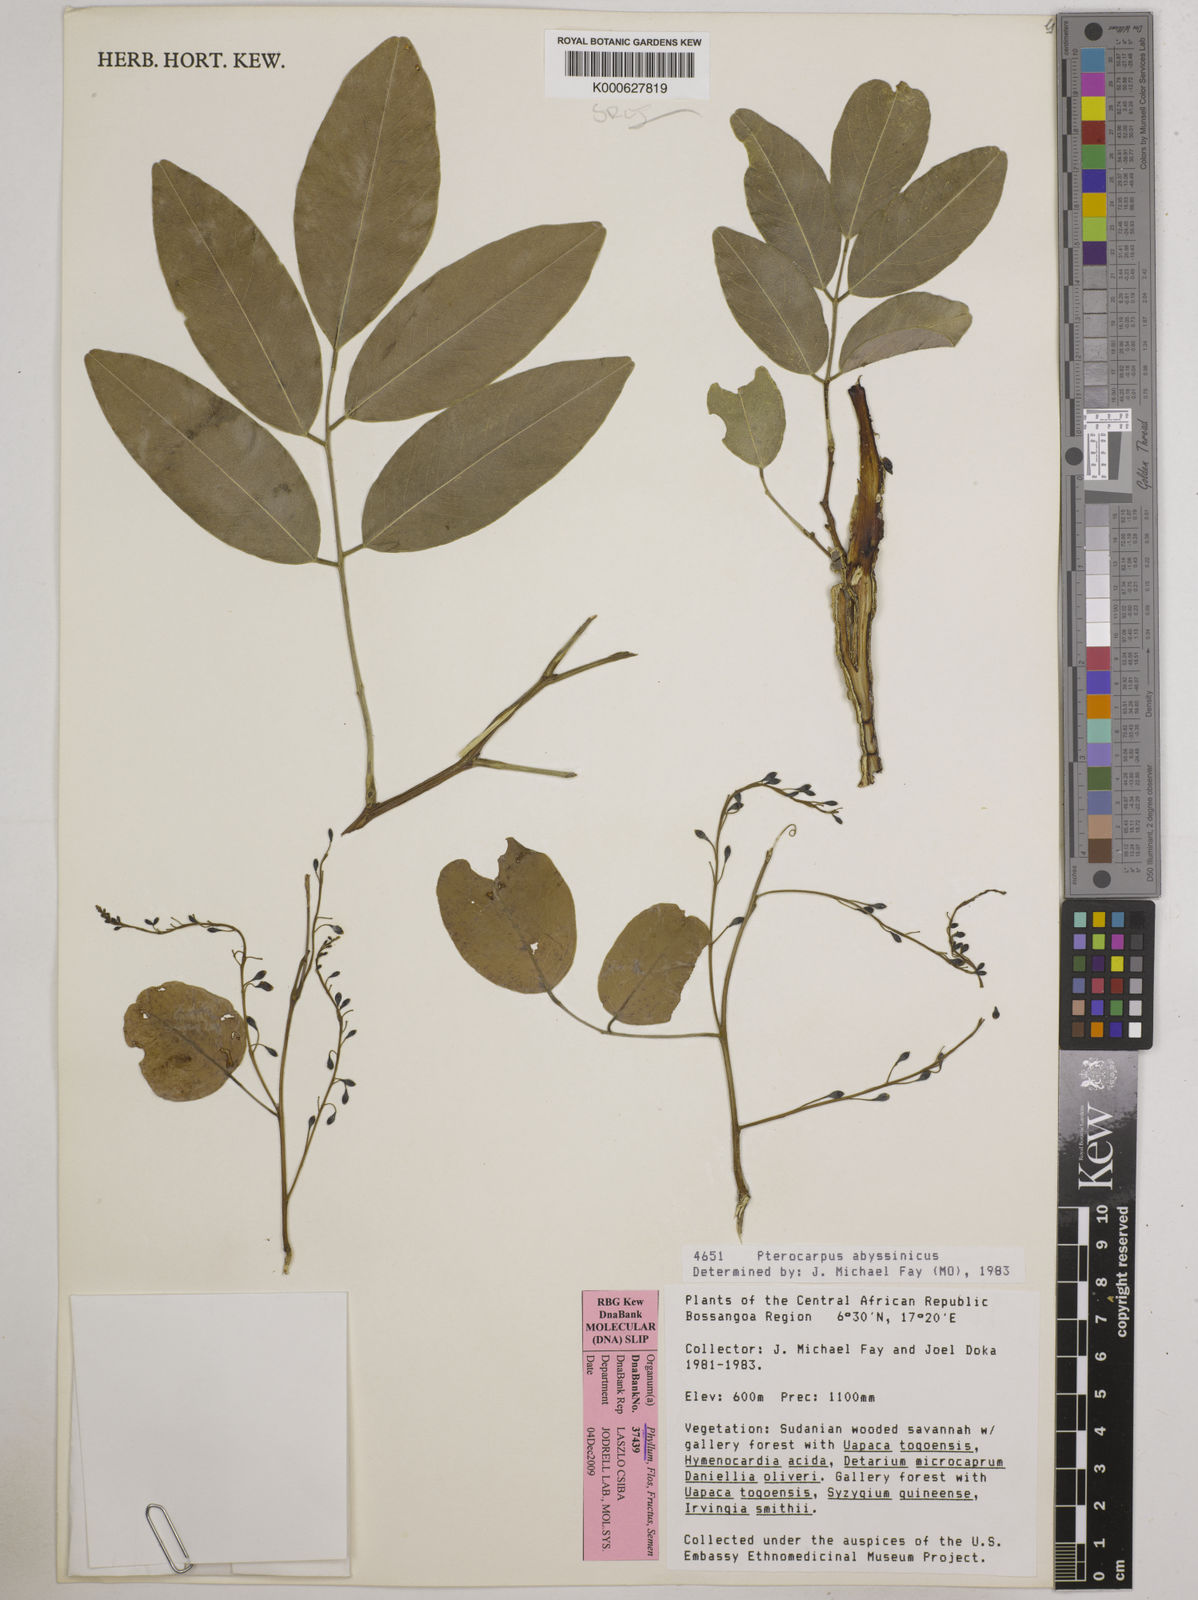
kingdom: Plantae
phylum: Tracheophyta
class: Magnoliopsida
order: Fabales
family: Fabaceae
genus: Pterocarpus
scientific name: Pterocarpus
